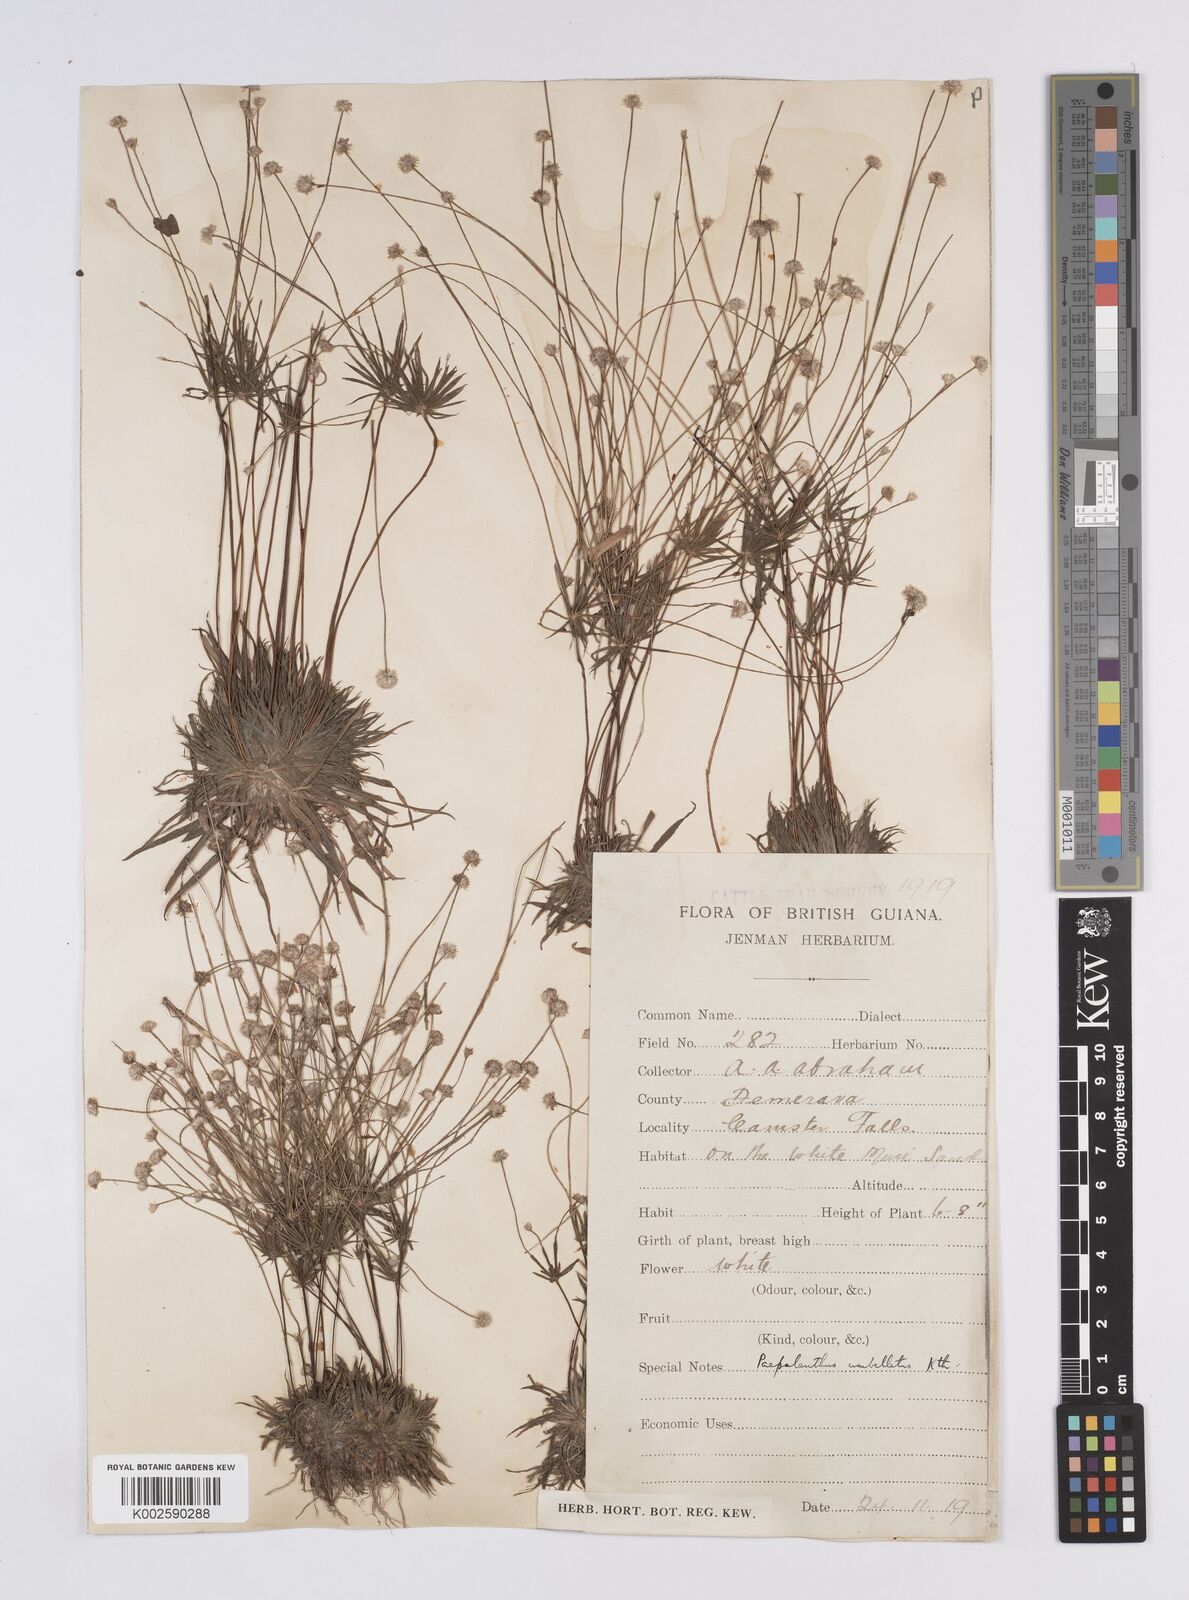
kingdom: Plantae
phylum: Tracheophyta
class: Liliopsida
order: Poales
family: Eriocaulaceae
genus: Syngonanthus
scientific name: Syngonanthus umbellatus
